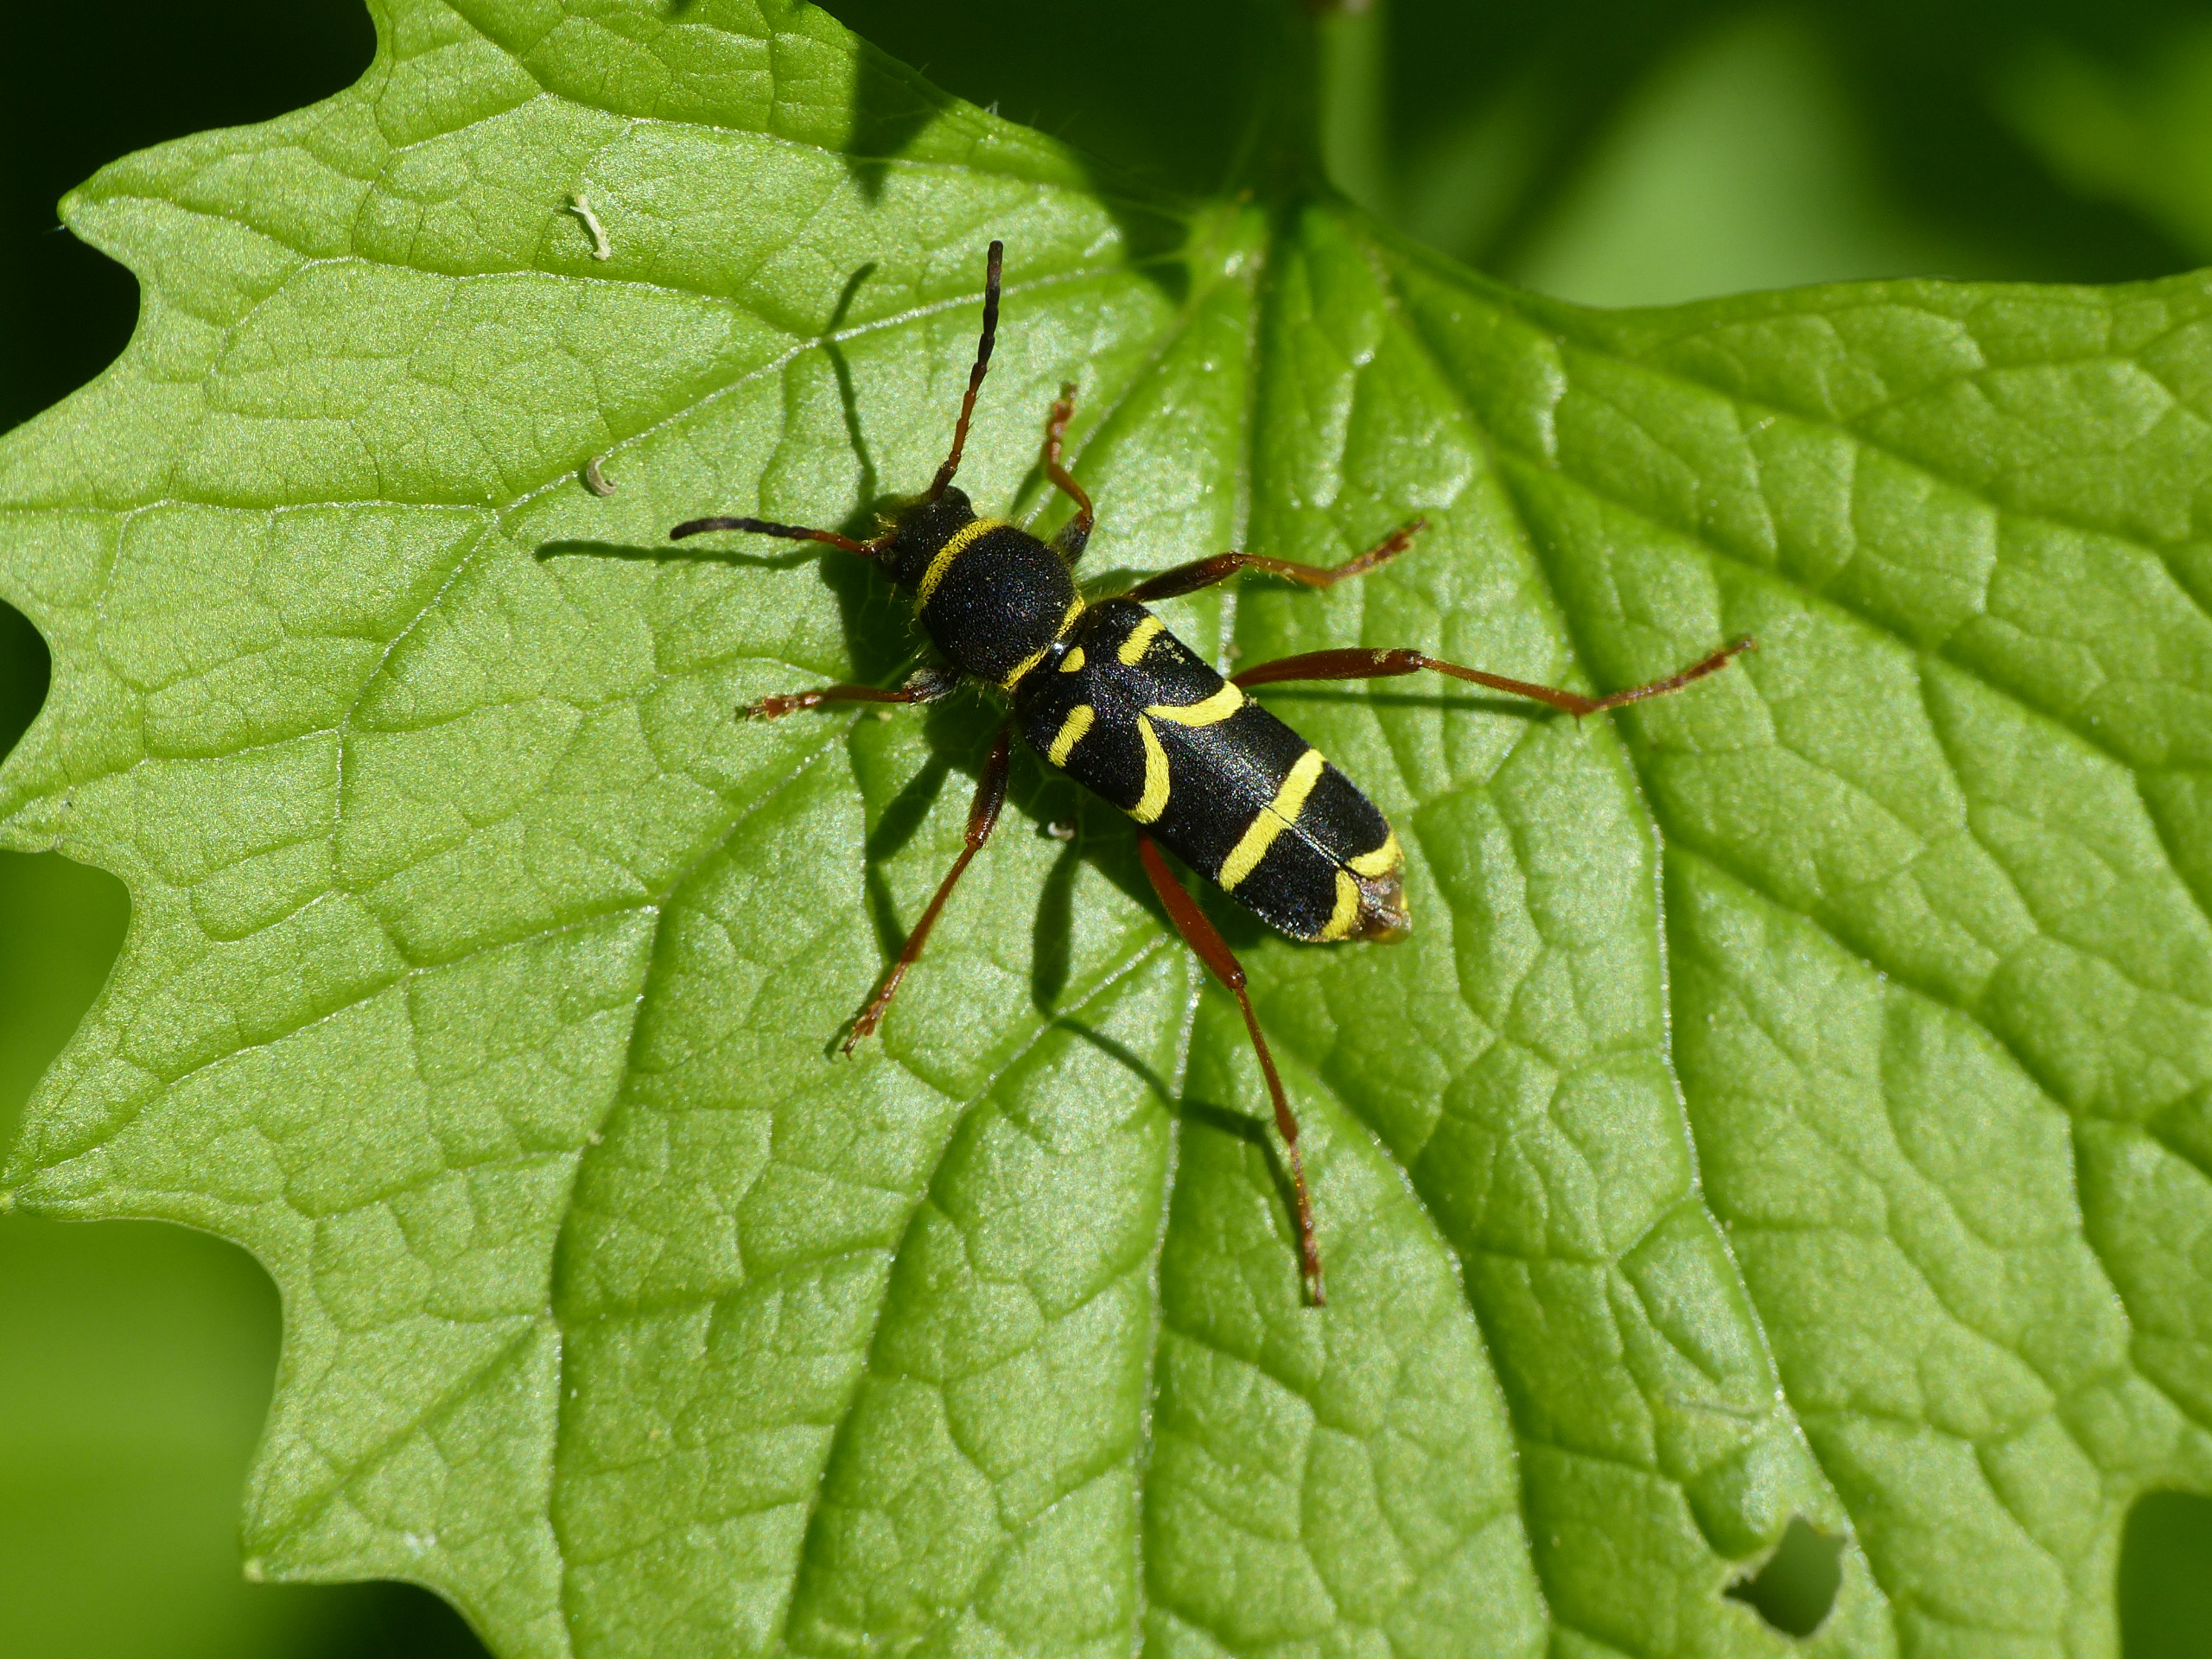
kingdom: Animalia
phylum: Arthropoda
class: Insecta
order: Coleoptera
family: Cerambycidae
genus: Clytus
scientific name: Clytus arietis
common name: Lille hvepsebuk
